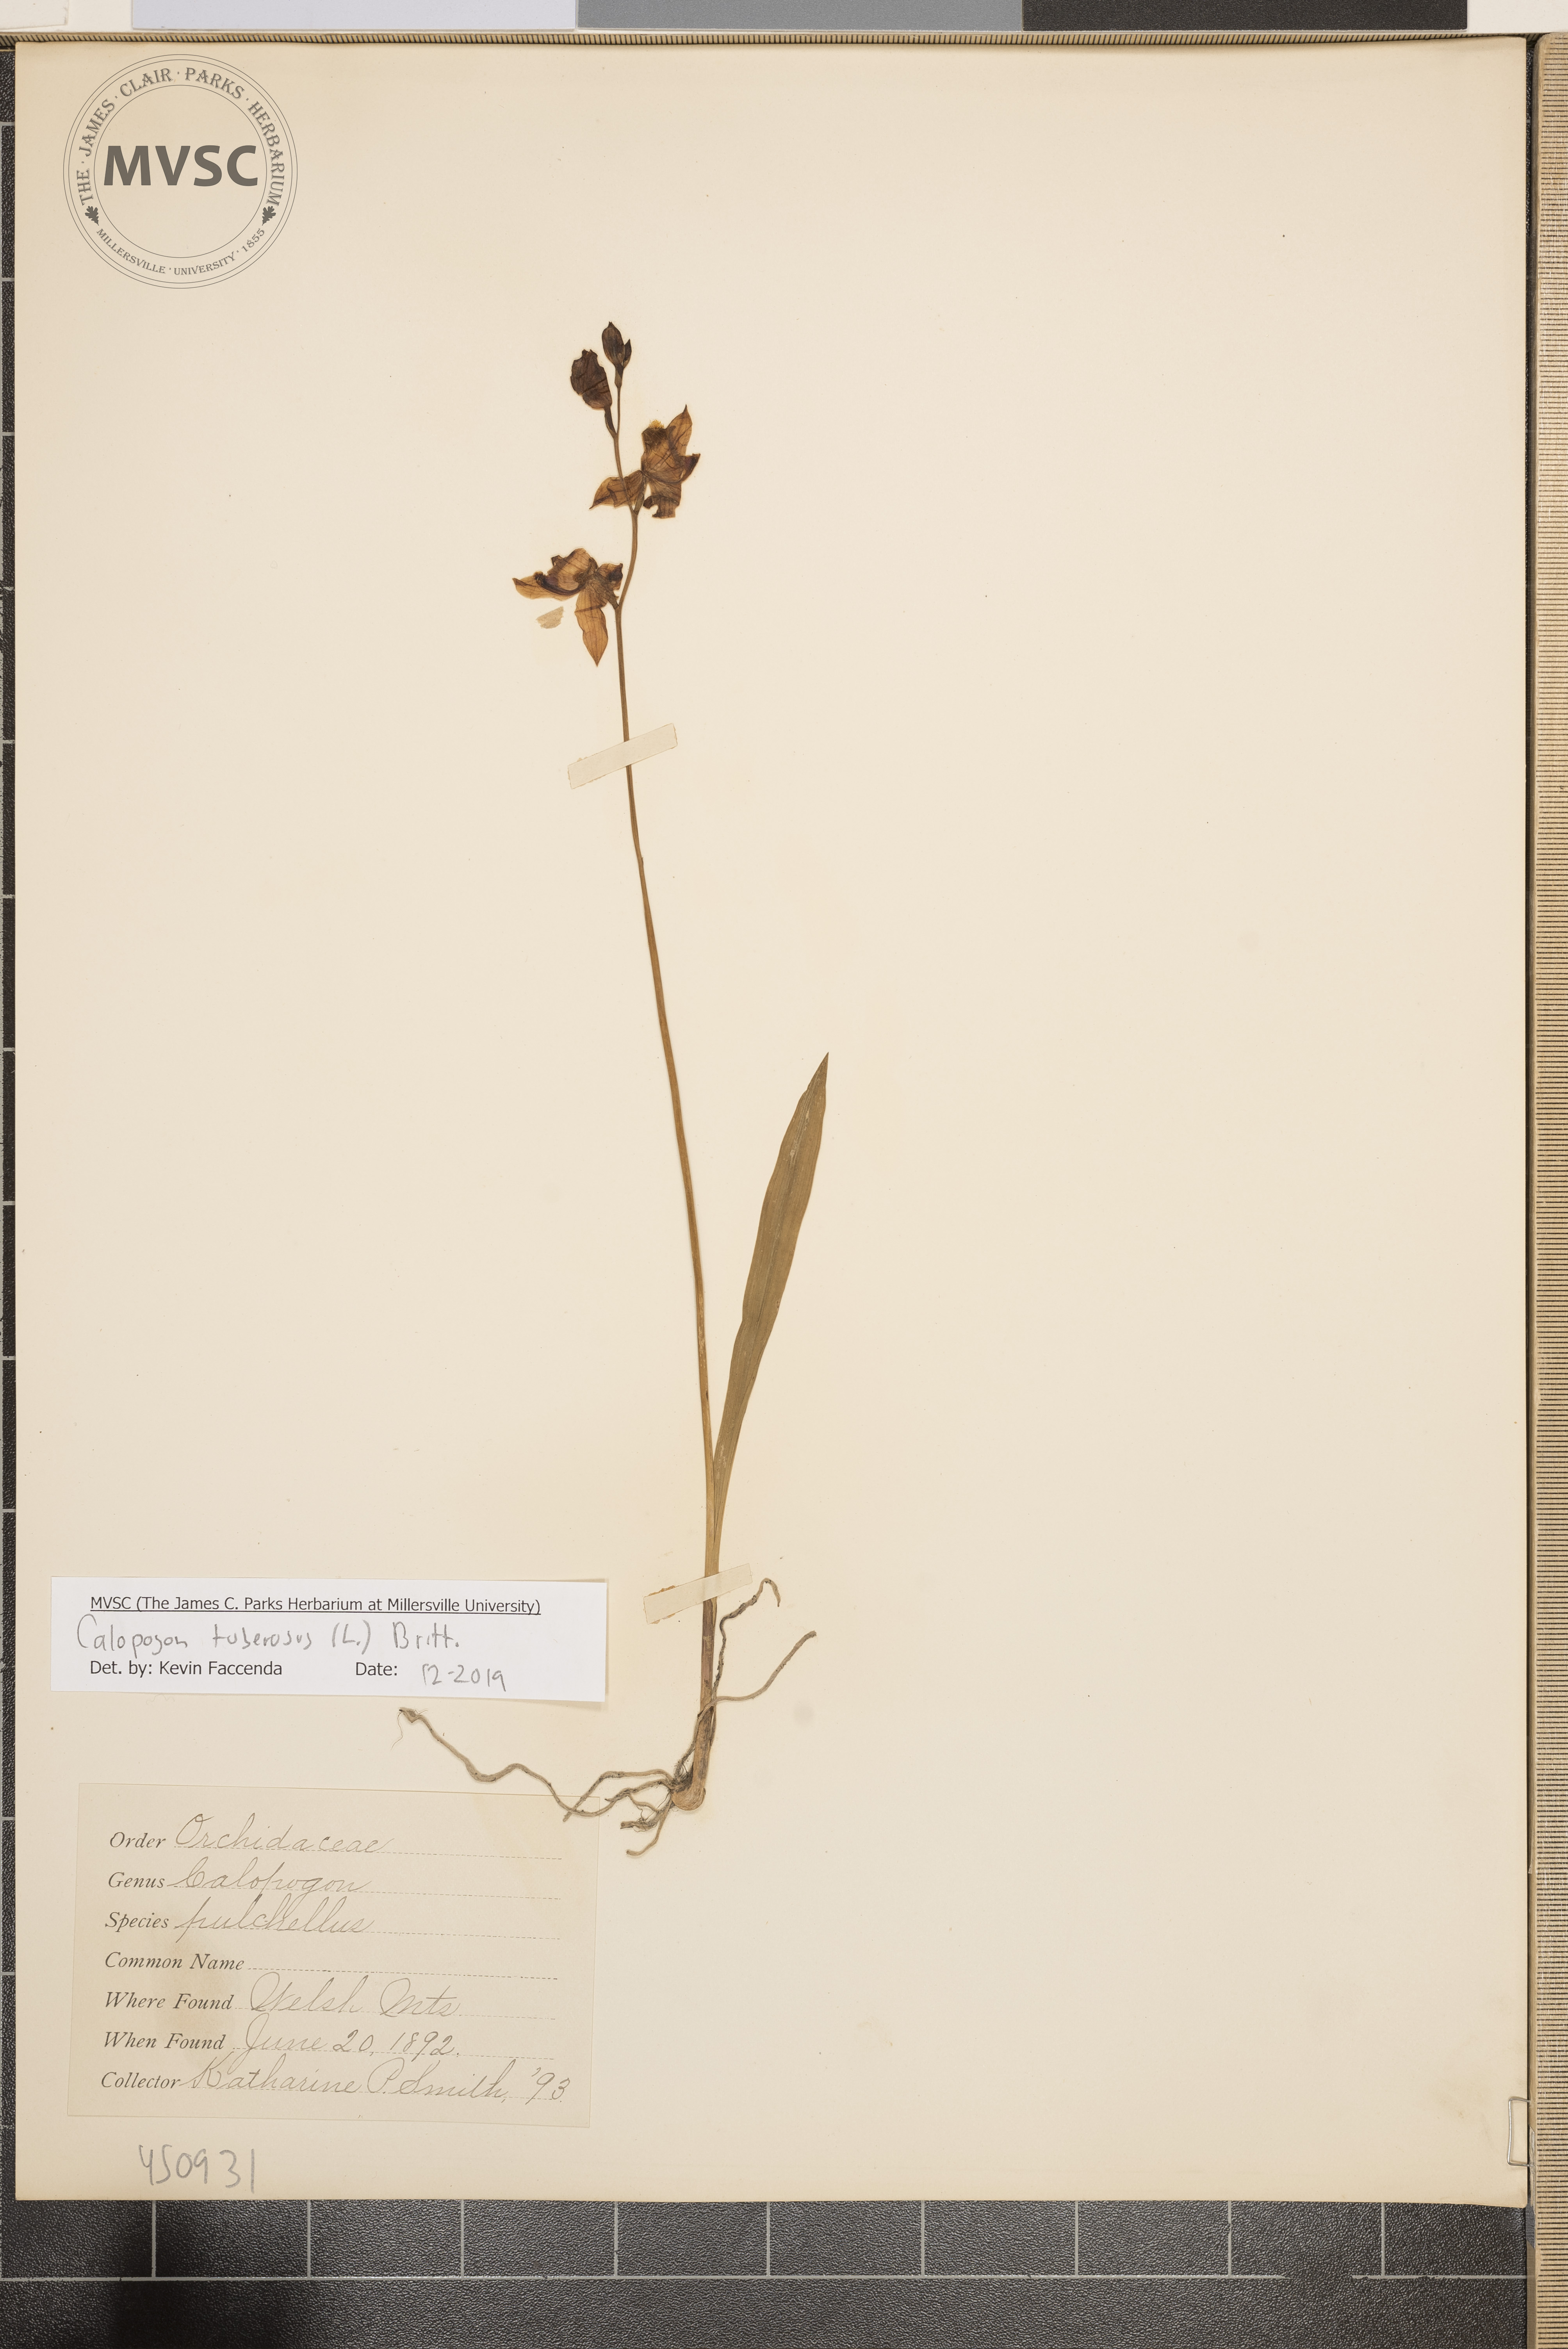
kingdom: Plantae
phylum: Tracheophyta
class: Liliopsida
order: Asparagales
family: Orchidaceae
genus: Calopogon
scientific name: Calopogon tuberosus
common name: Grass-pink
